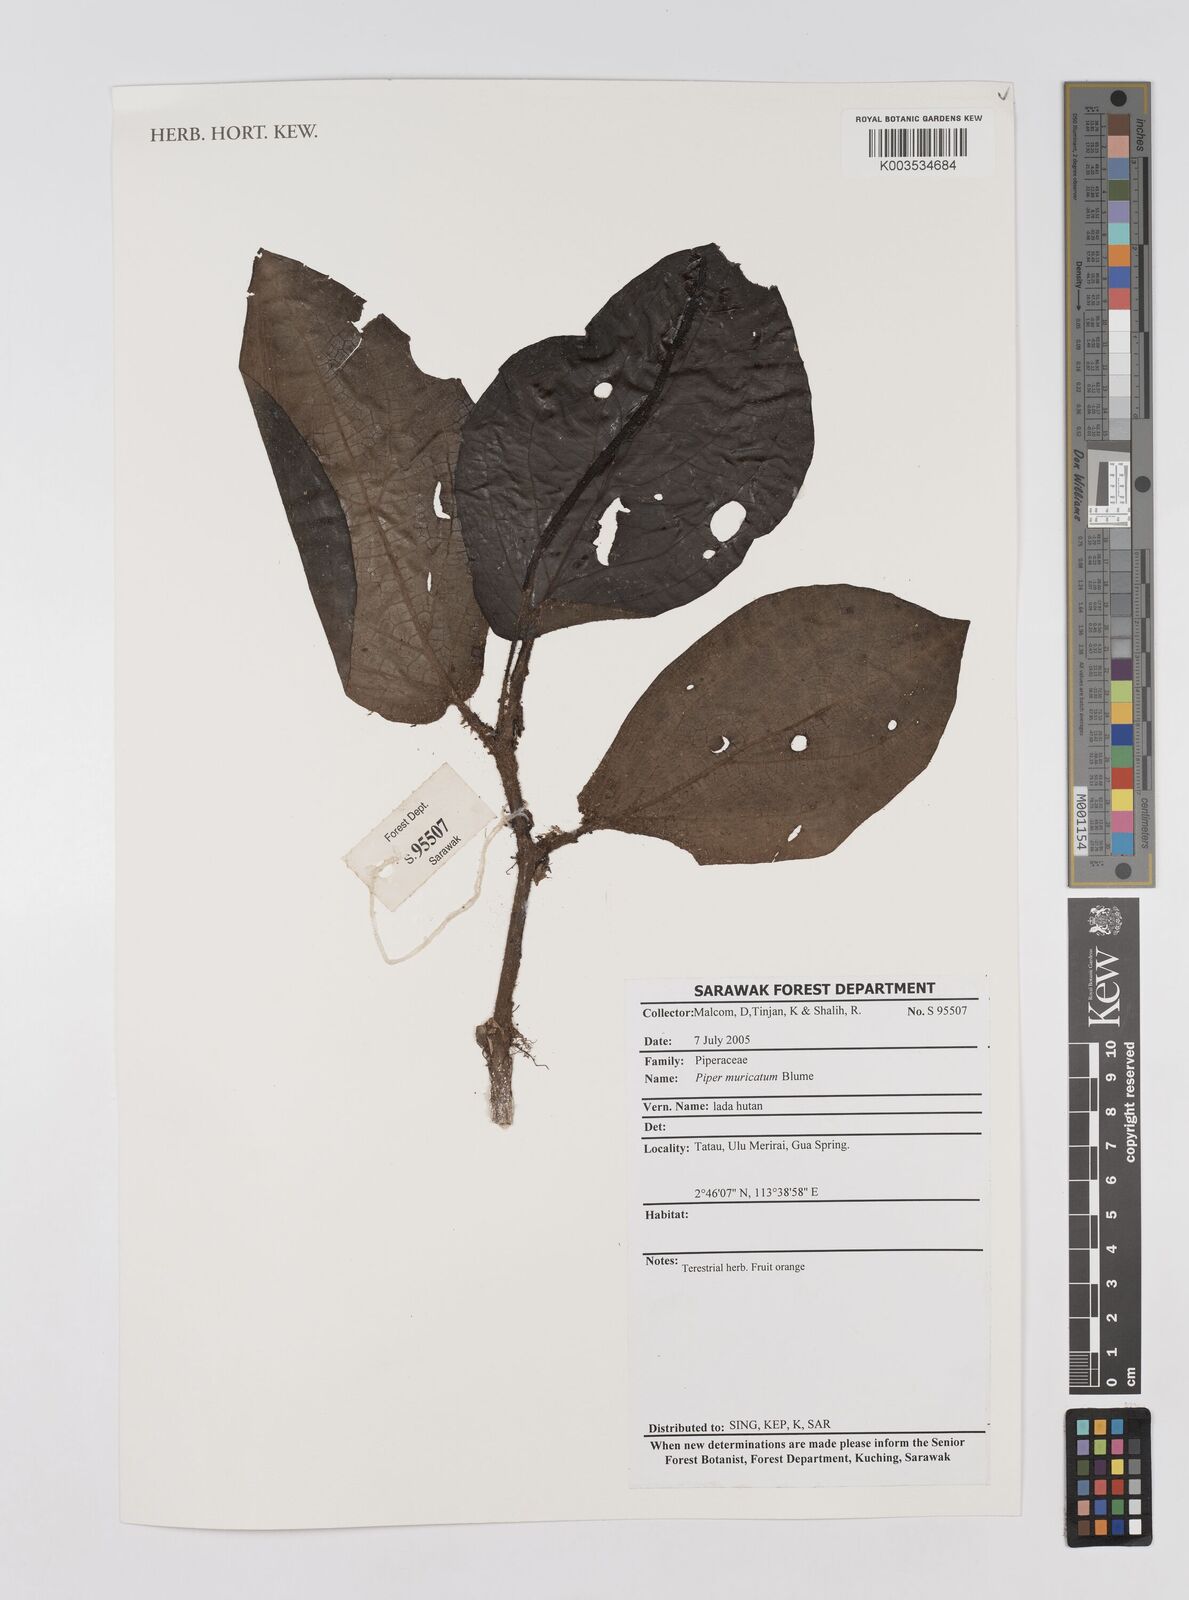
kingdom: Plantae
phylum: Tracheophyta
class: Magnoliopsida
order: Piperales
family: Piperaceae
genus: Piper
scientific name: Piper muricatum
